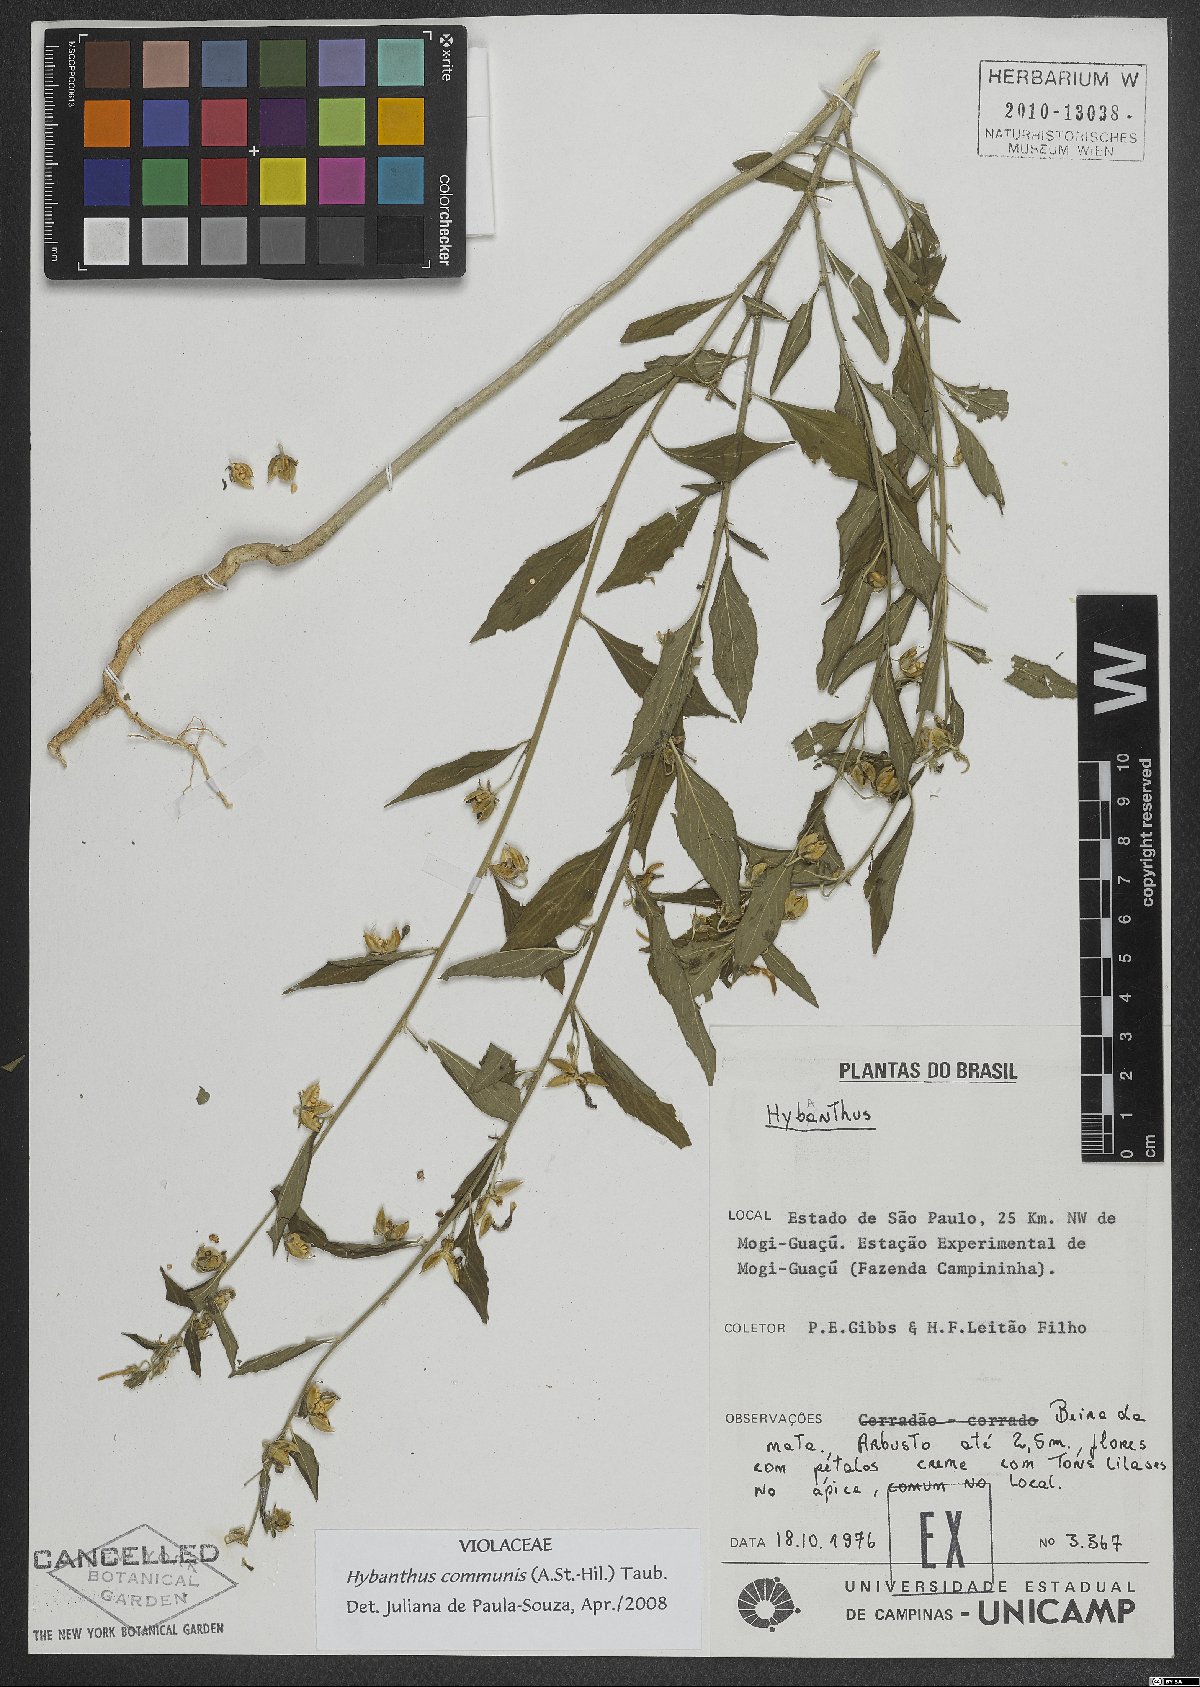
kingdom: Plantae
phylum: Tracheophyta
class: Magnoliopsida
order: Malpighiales
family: Violaceae
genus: Pombalia
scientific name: Pombalia communis
